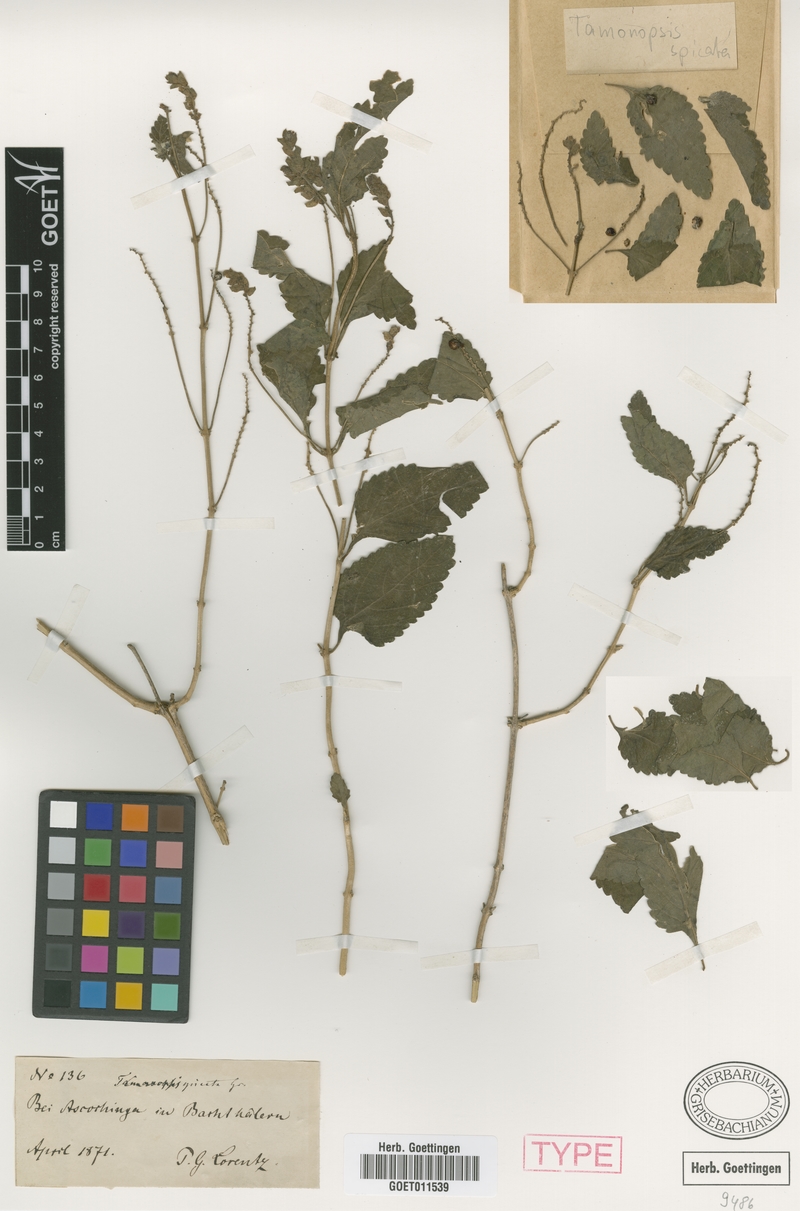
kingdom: Plantae
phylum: Tracheophyta
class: Magnoliopsida
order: Lamiales
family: Verbenaceae
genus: Lantana
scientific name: Lantana grisebachii
